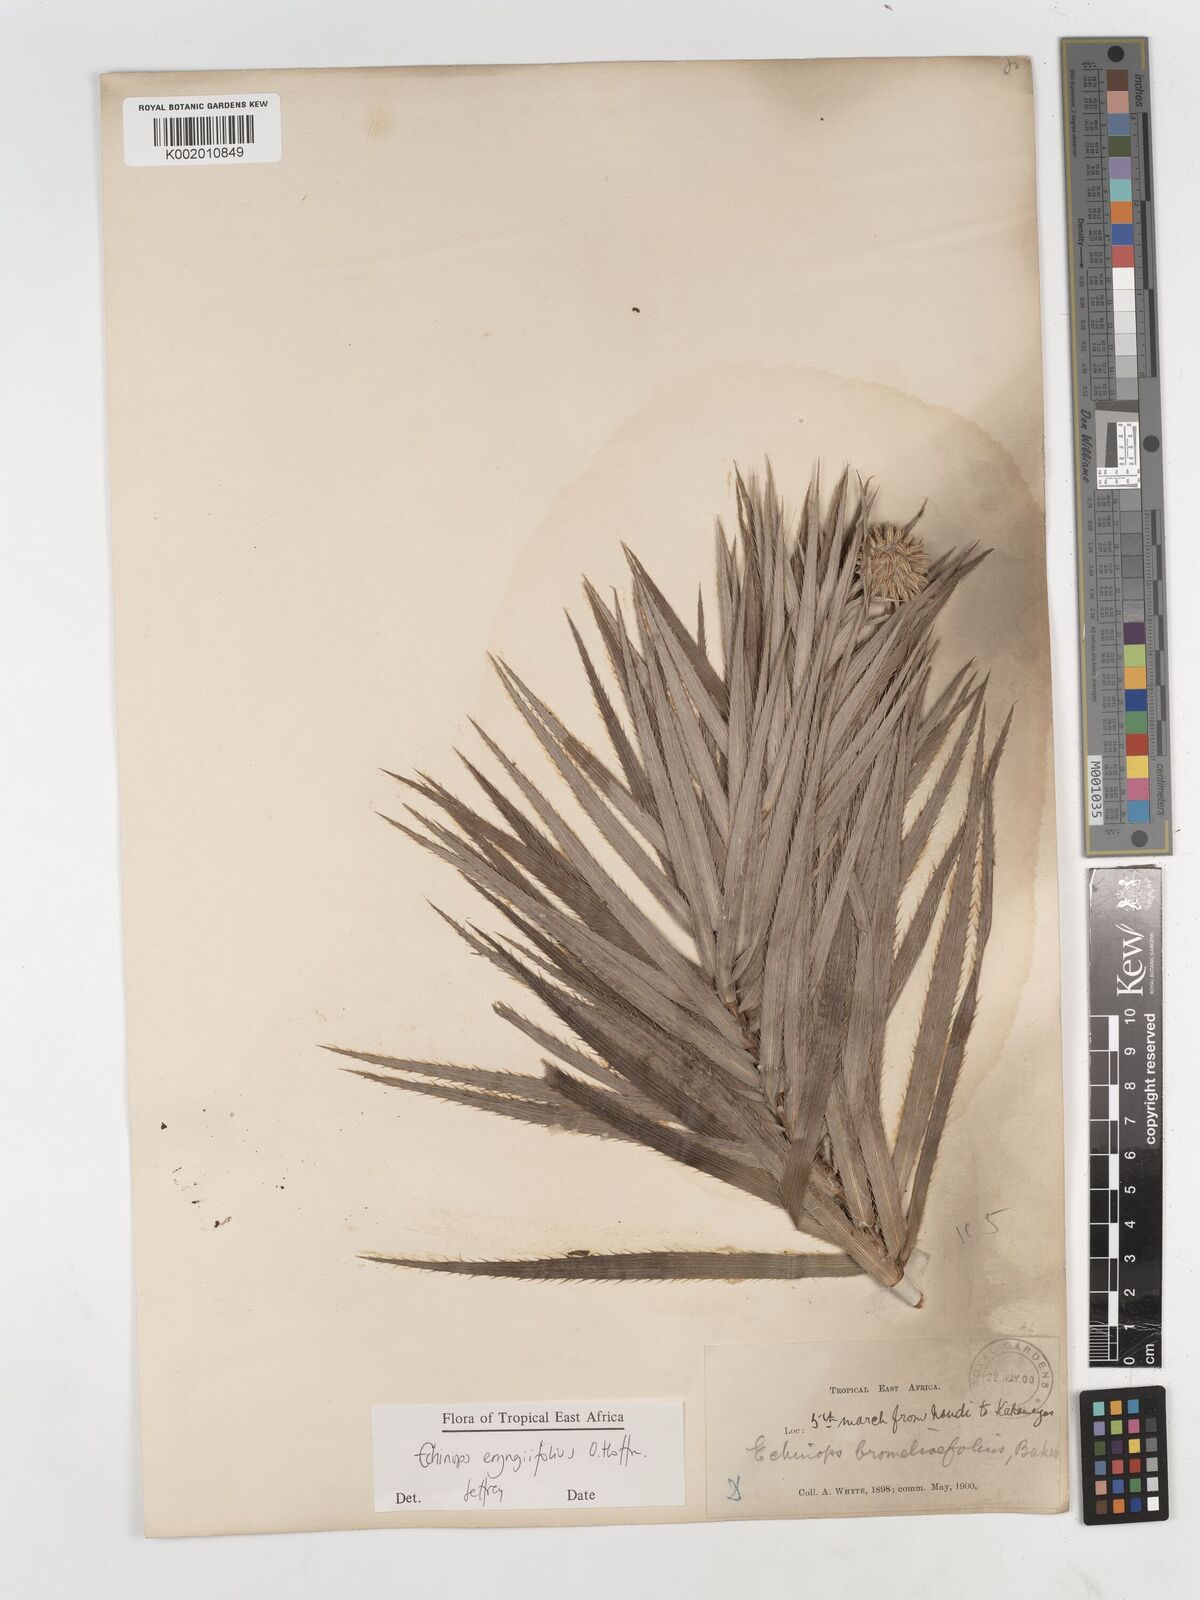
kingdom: Plantae
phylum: Tracheophyta
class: Magnoliopsida
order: Asterales
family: Asteraceae
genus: Echinops
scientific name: Echinops eryngiifolius
